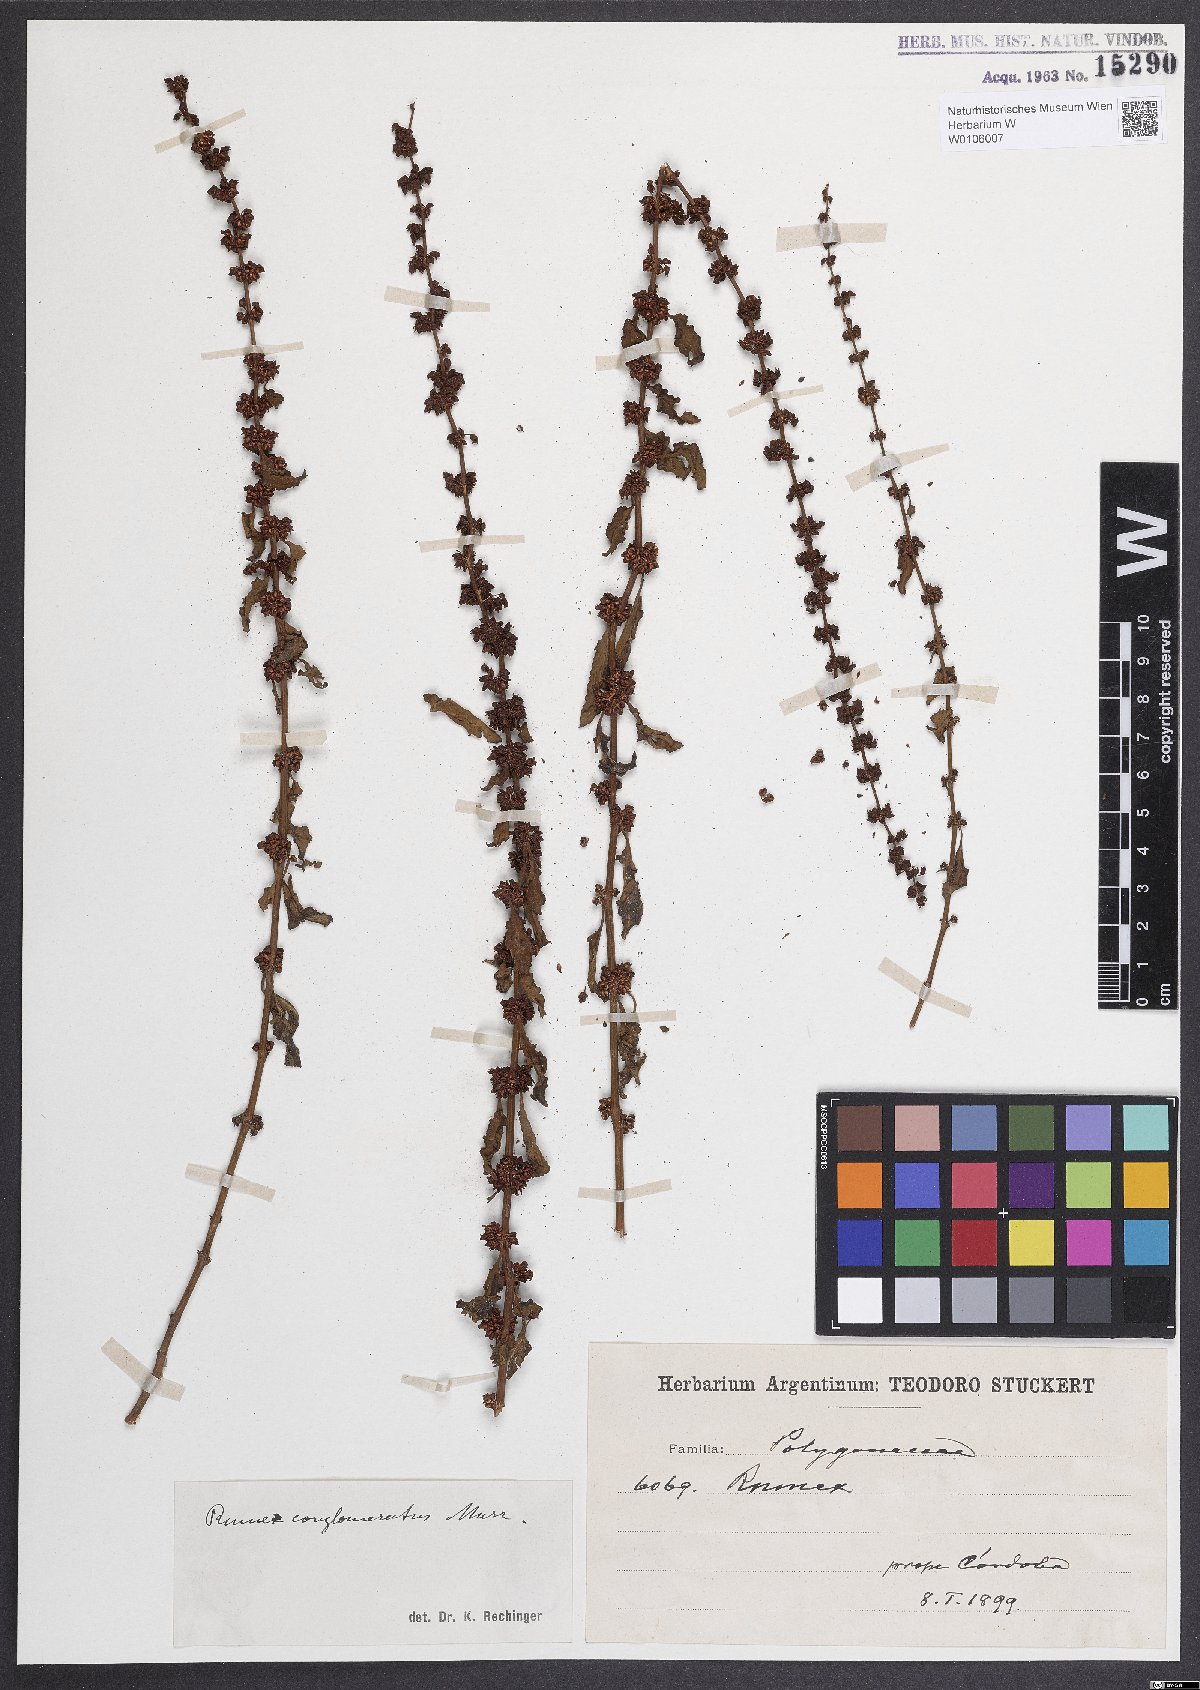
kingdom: Plantae
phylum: Tracheophyta
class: Magnoliopsida
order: Caryophyllales
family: Polygonaceae
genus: Rumex
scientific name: Rumex conglomeratus
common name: Clustered dock
